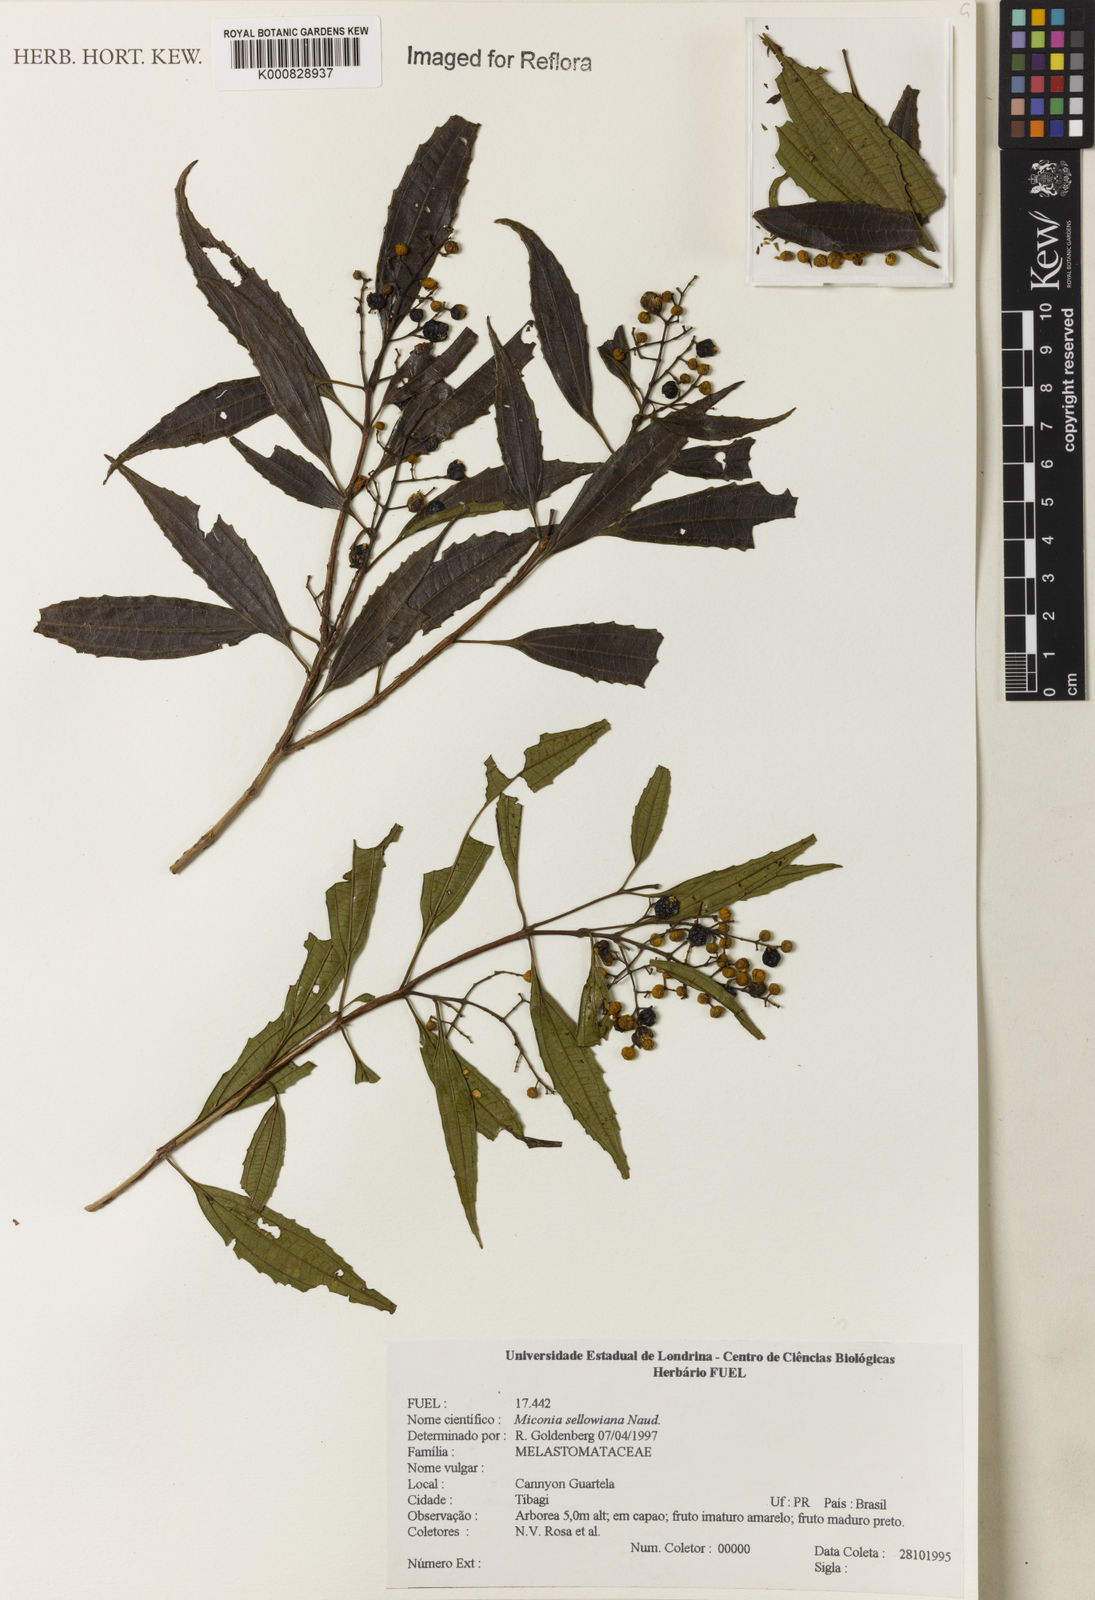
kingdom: Plantae
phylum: Tracheophyta
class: Magnoliopsida
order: Myrtales
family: Melastomataceae
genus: Miconia
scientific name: Miconia sellowiana
